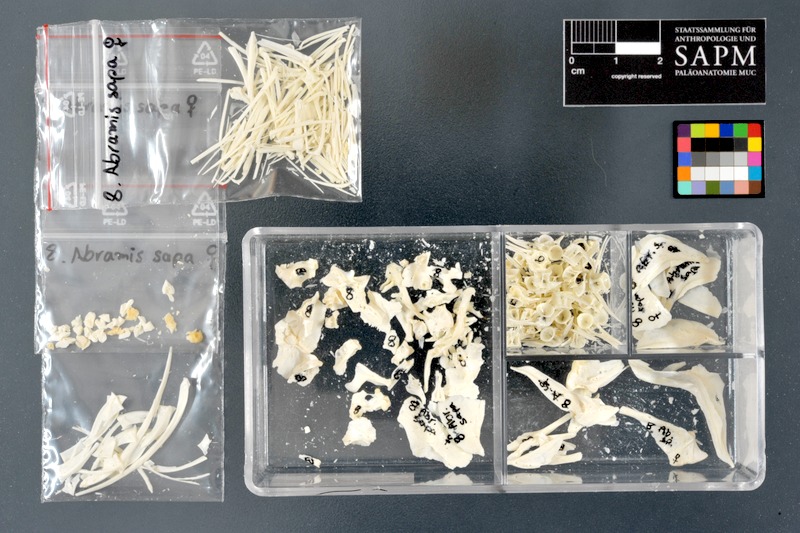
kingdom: Animalia
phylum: Chordata
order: Cypriniformes
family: Cyprinidae
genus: Ballerus
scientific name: Ballerus sapa
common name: White-eye bream
